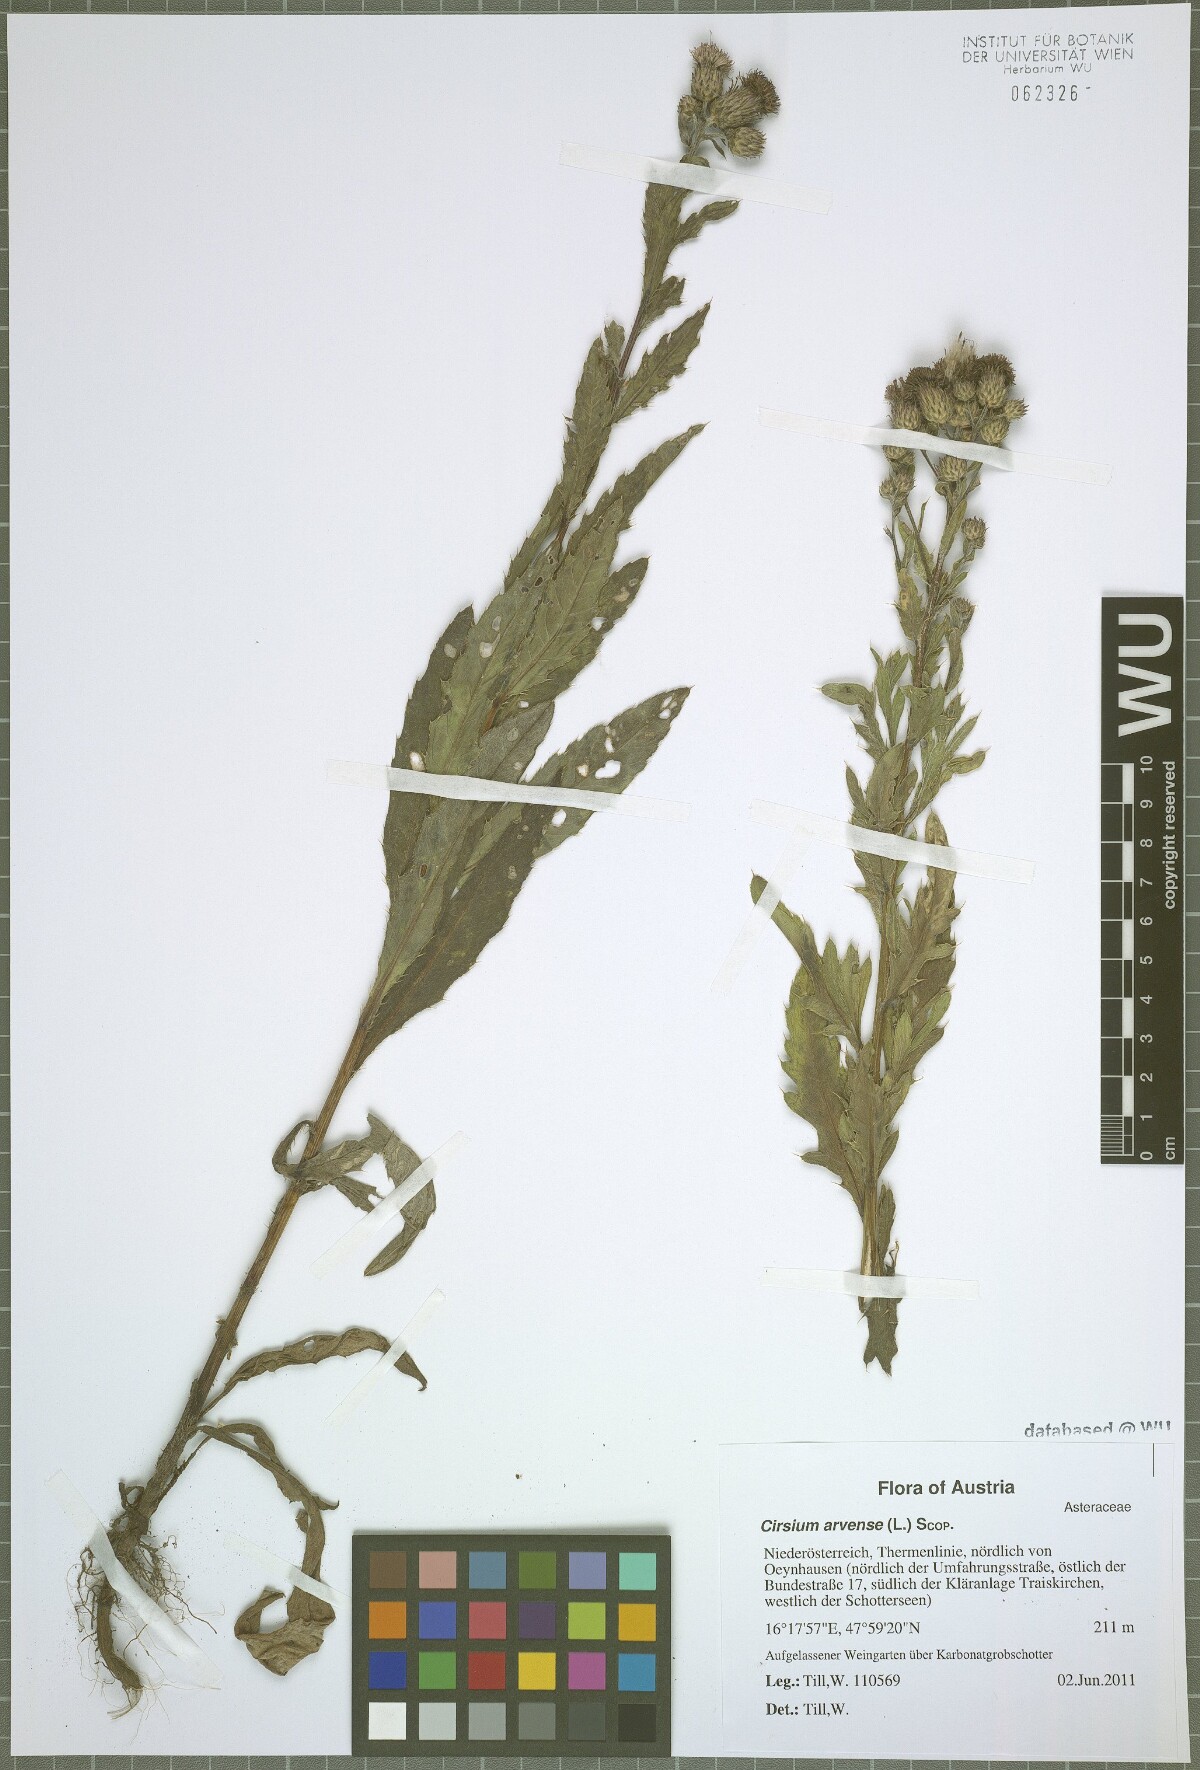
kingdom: Plantae
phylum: Tracheophyta
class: Magnoliopsida
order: Asterales
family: Asteraceae
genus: Cirsium
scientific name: Cirsium arvense
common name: Creeping thistle
